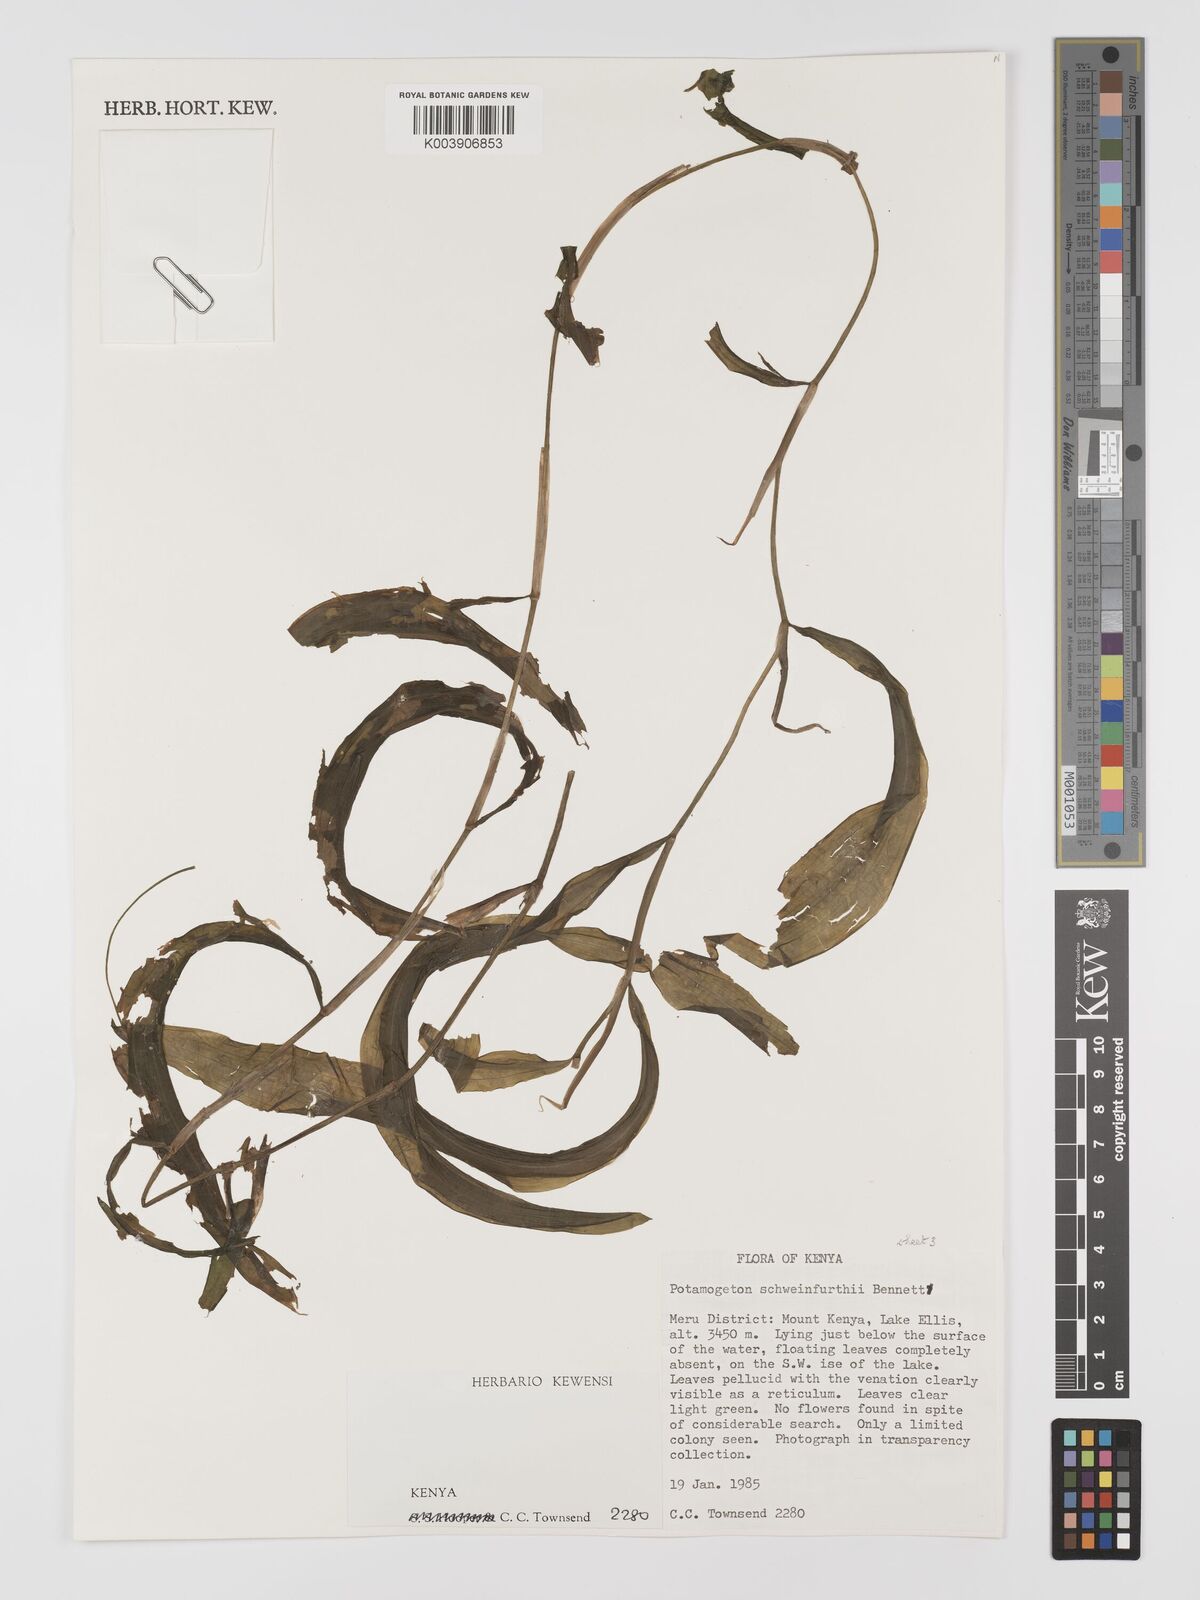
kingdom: Plantae
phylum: Tracheophyta
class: Liliopsida
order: Alismatales
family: Potamogetonaceae
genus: Potamogeton
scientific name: Potamogeton schweinfurthii
